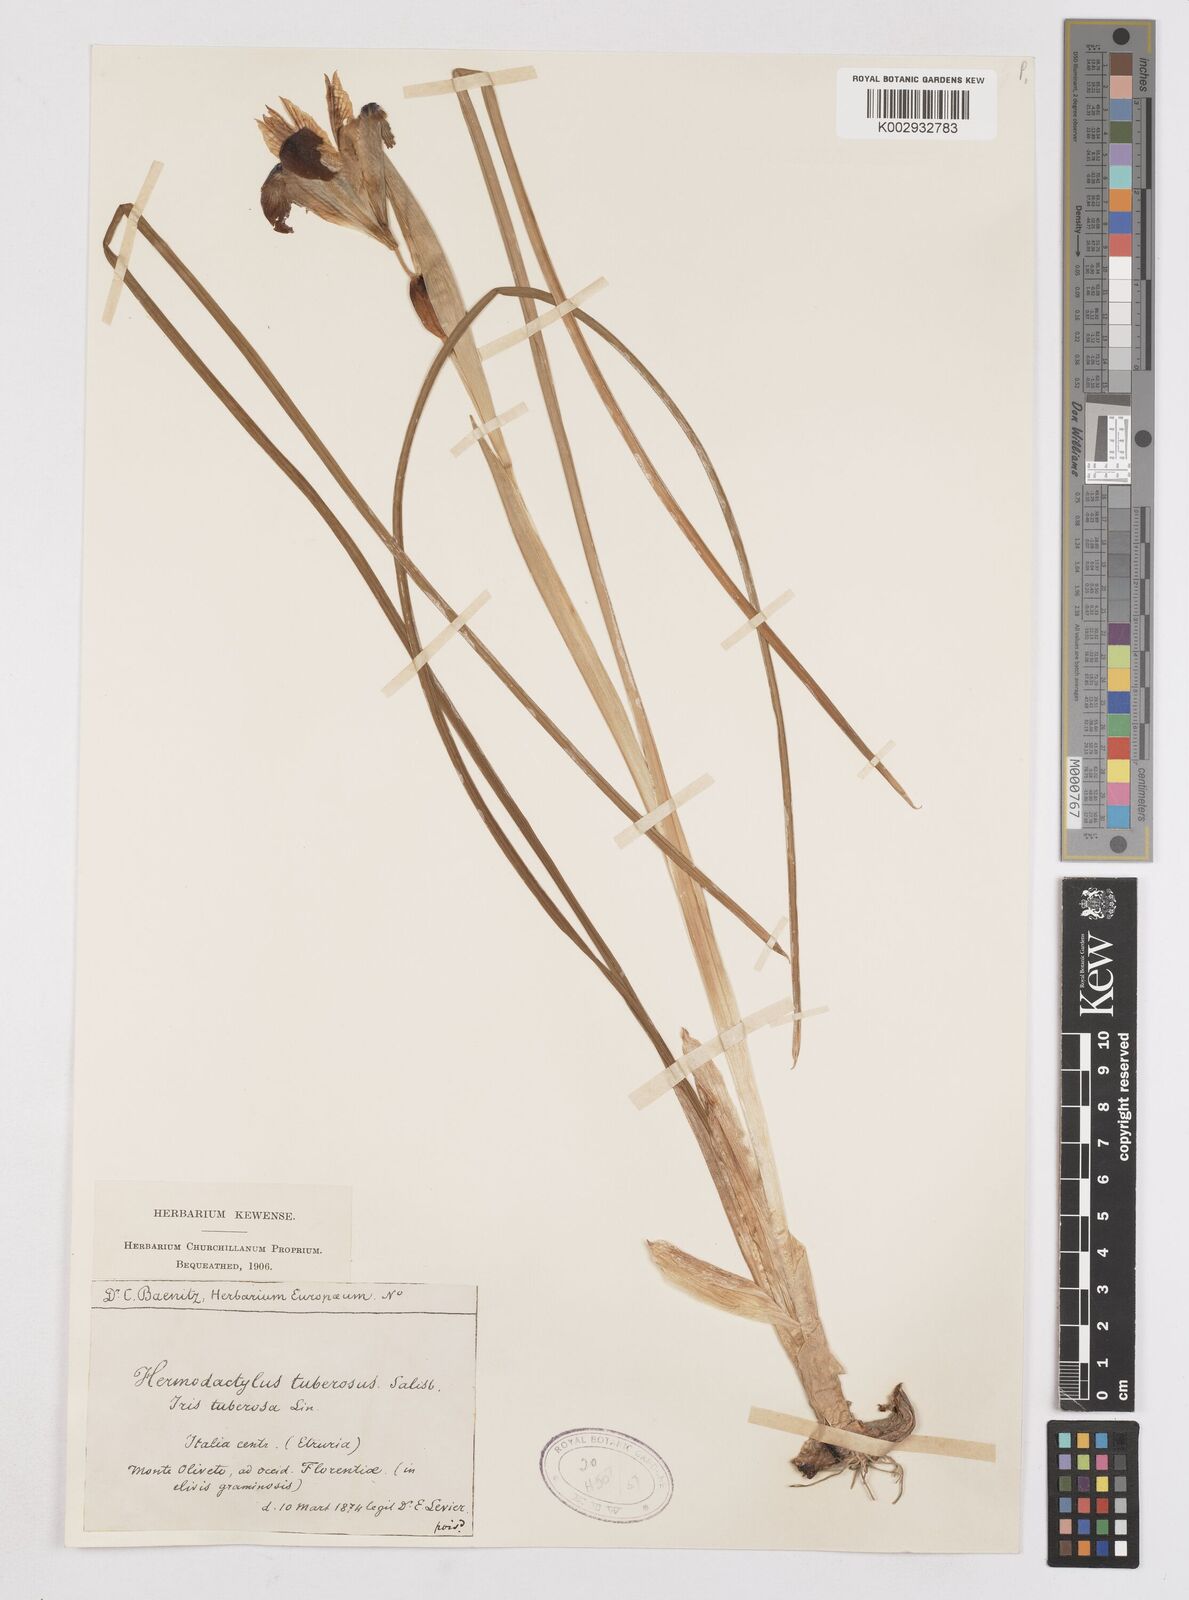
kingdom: Plantae
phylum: Tracheophyta
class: Liliopsida
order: Asparagales
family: Iridaceae
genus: Iris
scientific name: Iris tuberosa
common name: Snake's-head iris
